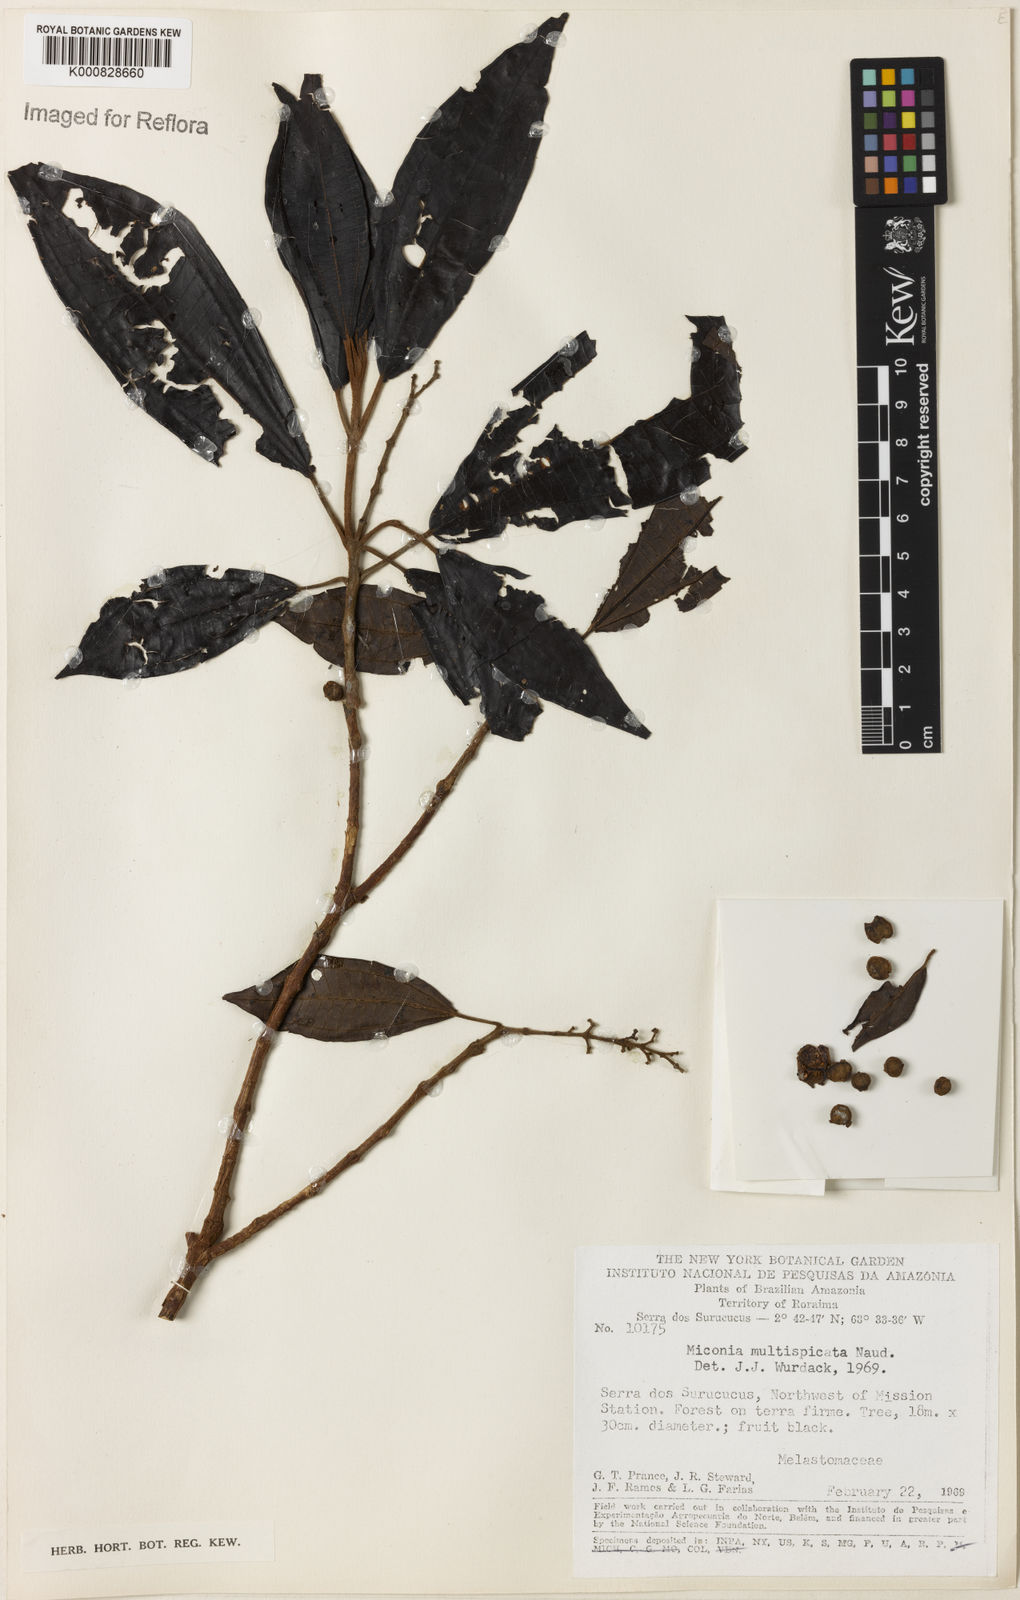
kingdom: Plantae
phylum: Tracheophyta
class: Magnoliopsida
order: Myrtales
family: Melastomataceae
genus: Miconia
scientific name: Miconia multispicata
